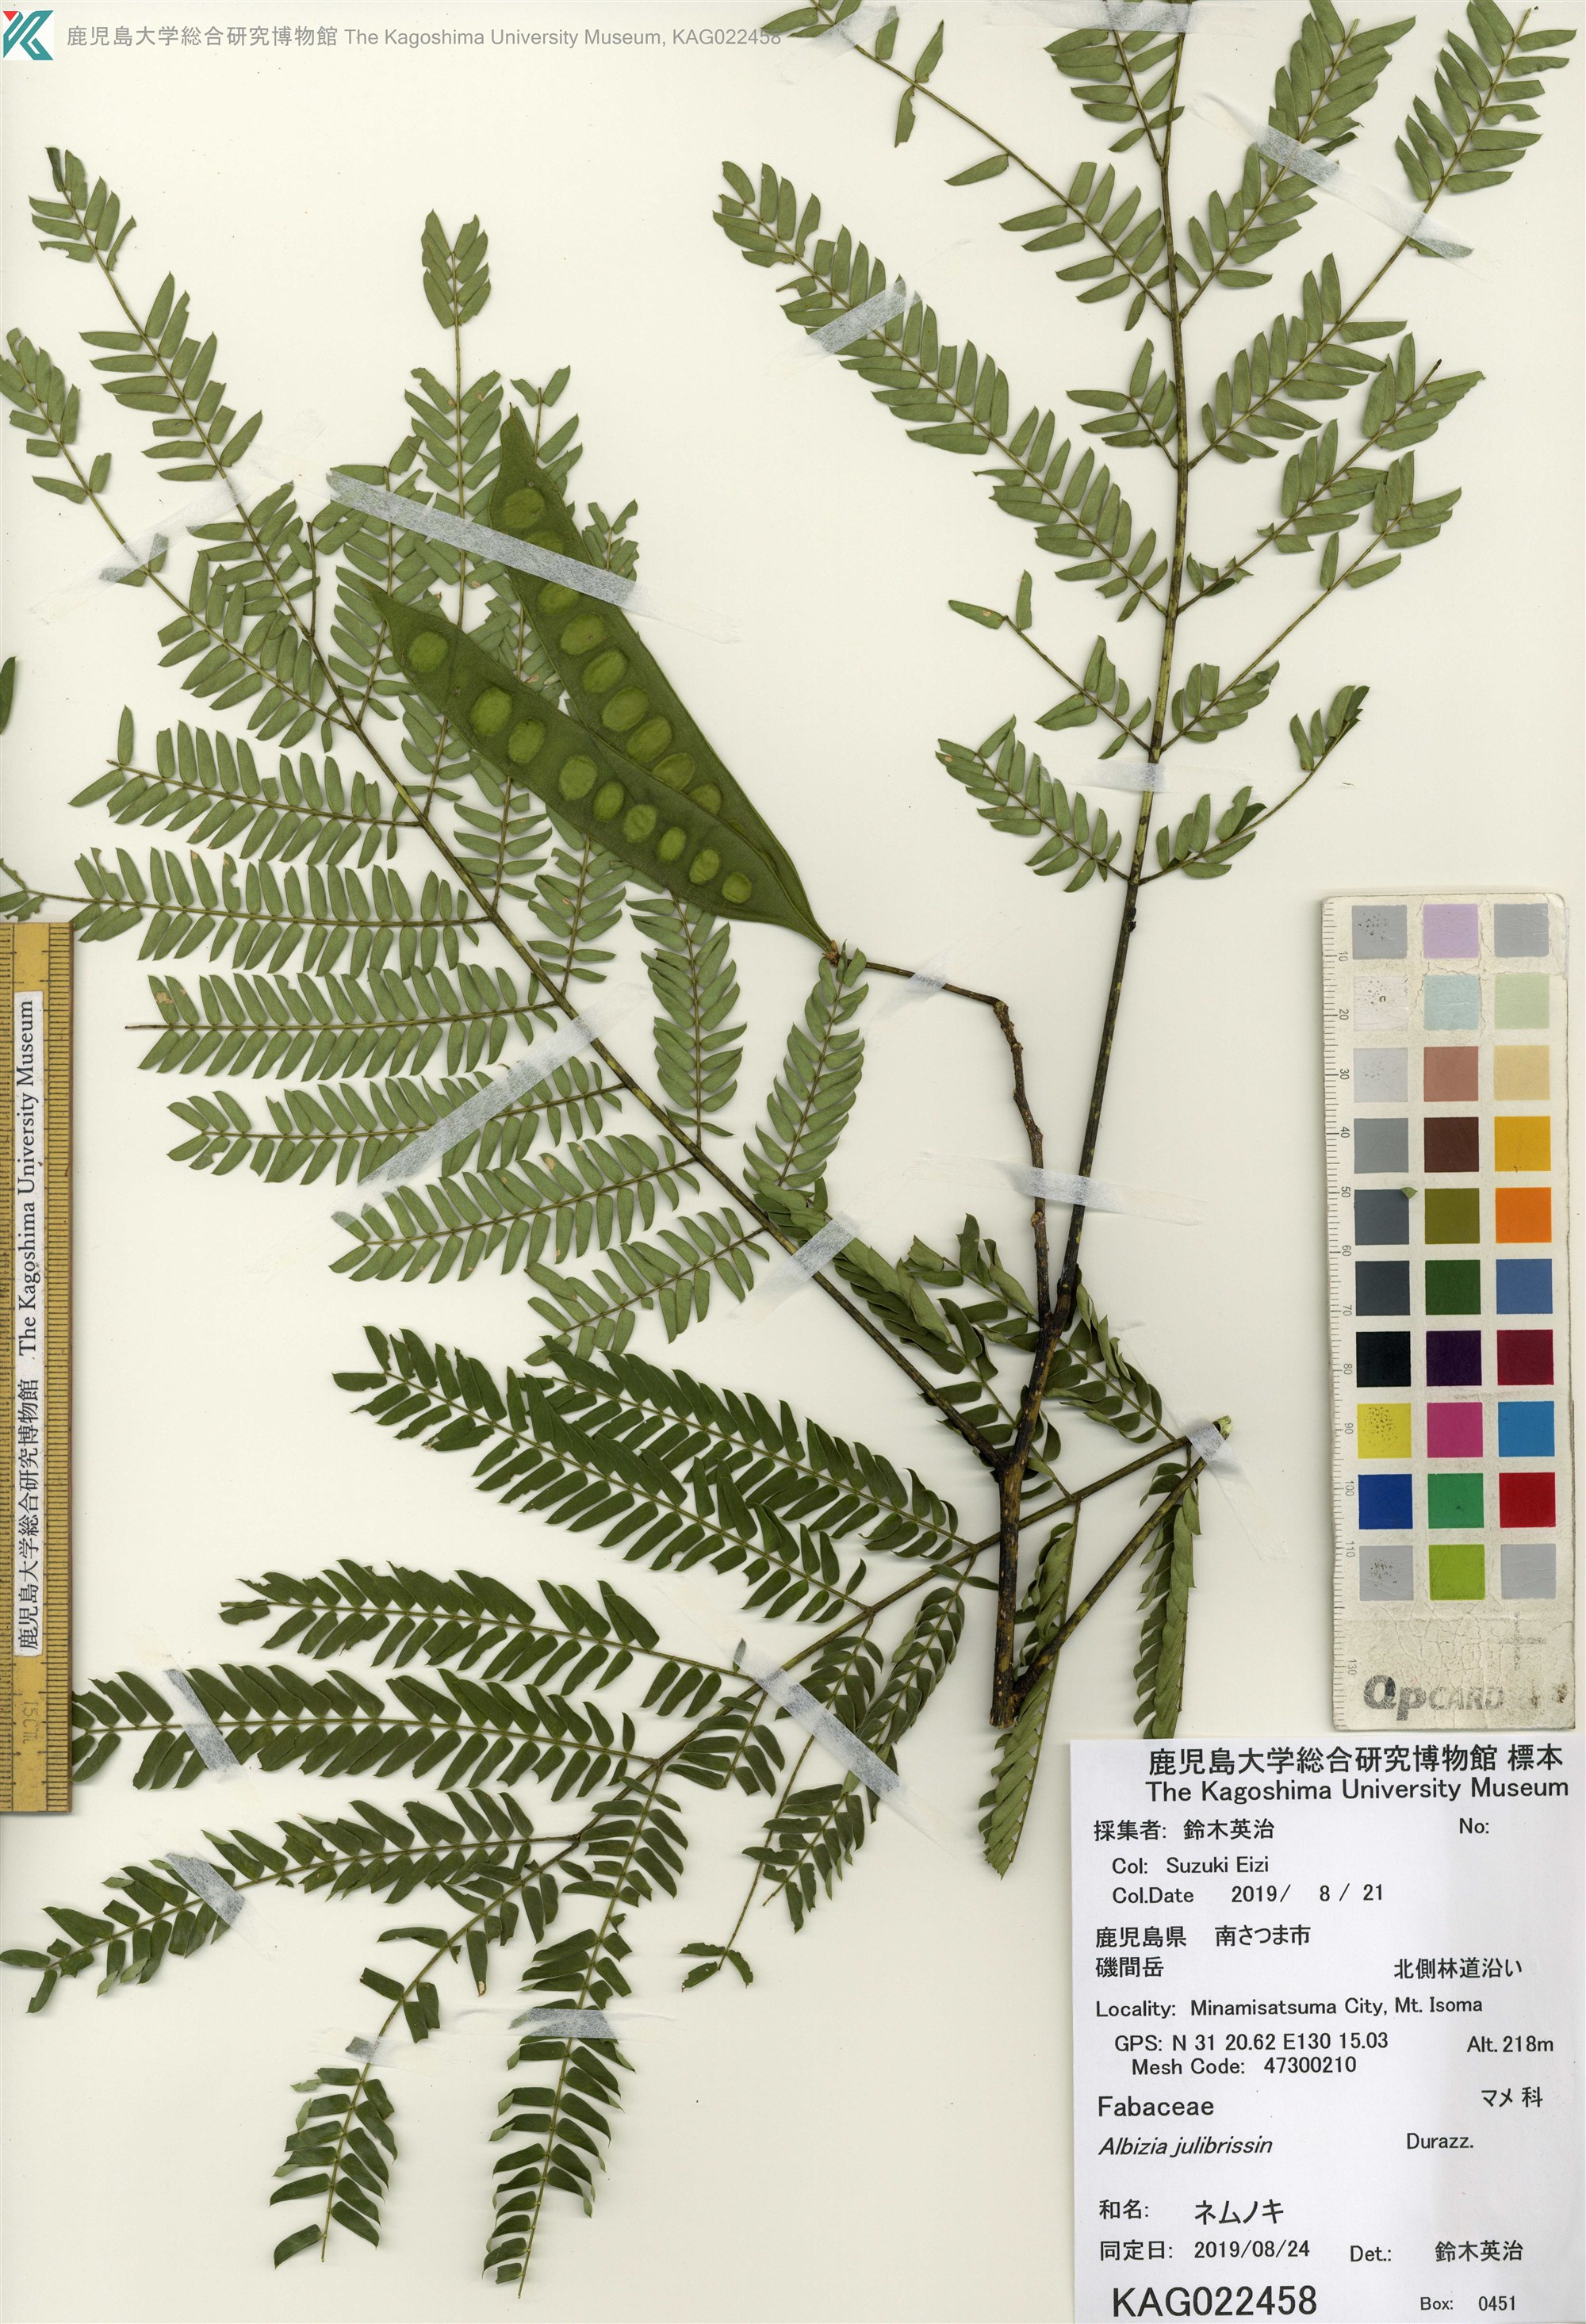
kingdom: Plantae
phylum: Tracheophyta
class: Magnoliopsida
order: Fabales
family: Fabaceae
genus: Albizia
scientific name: Albizia julibrissin
